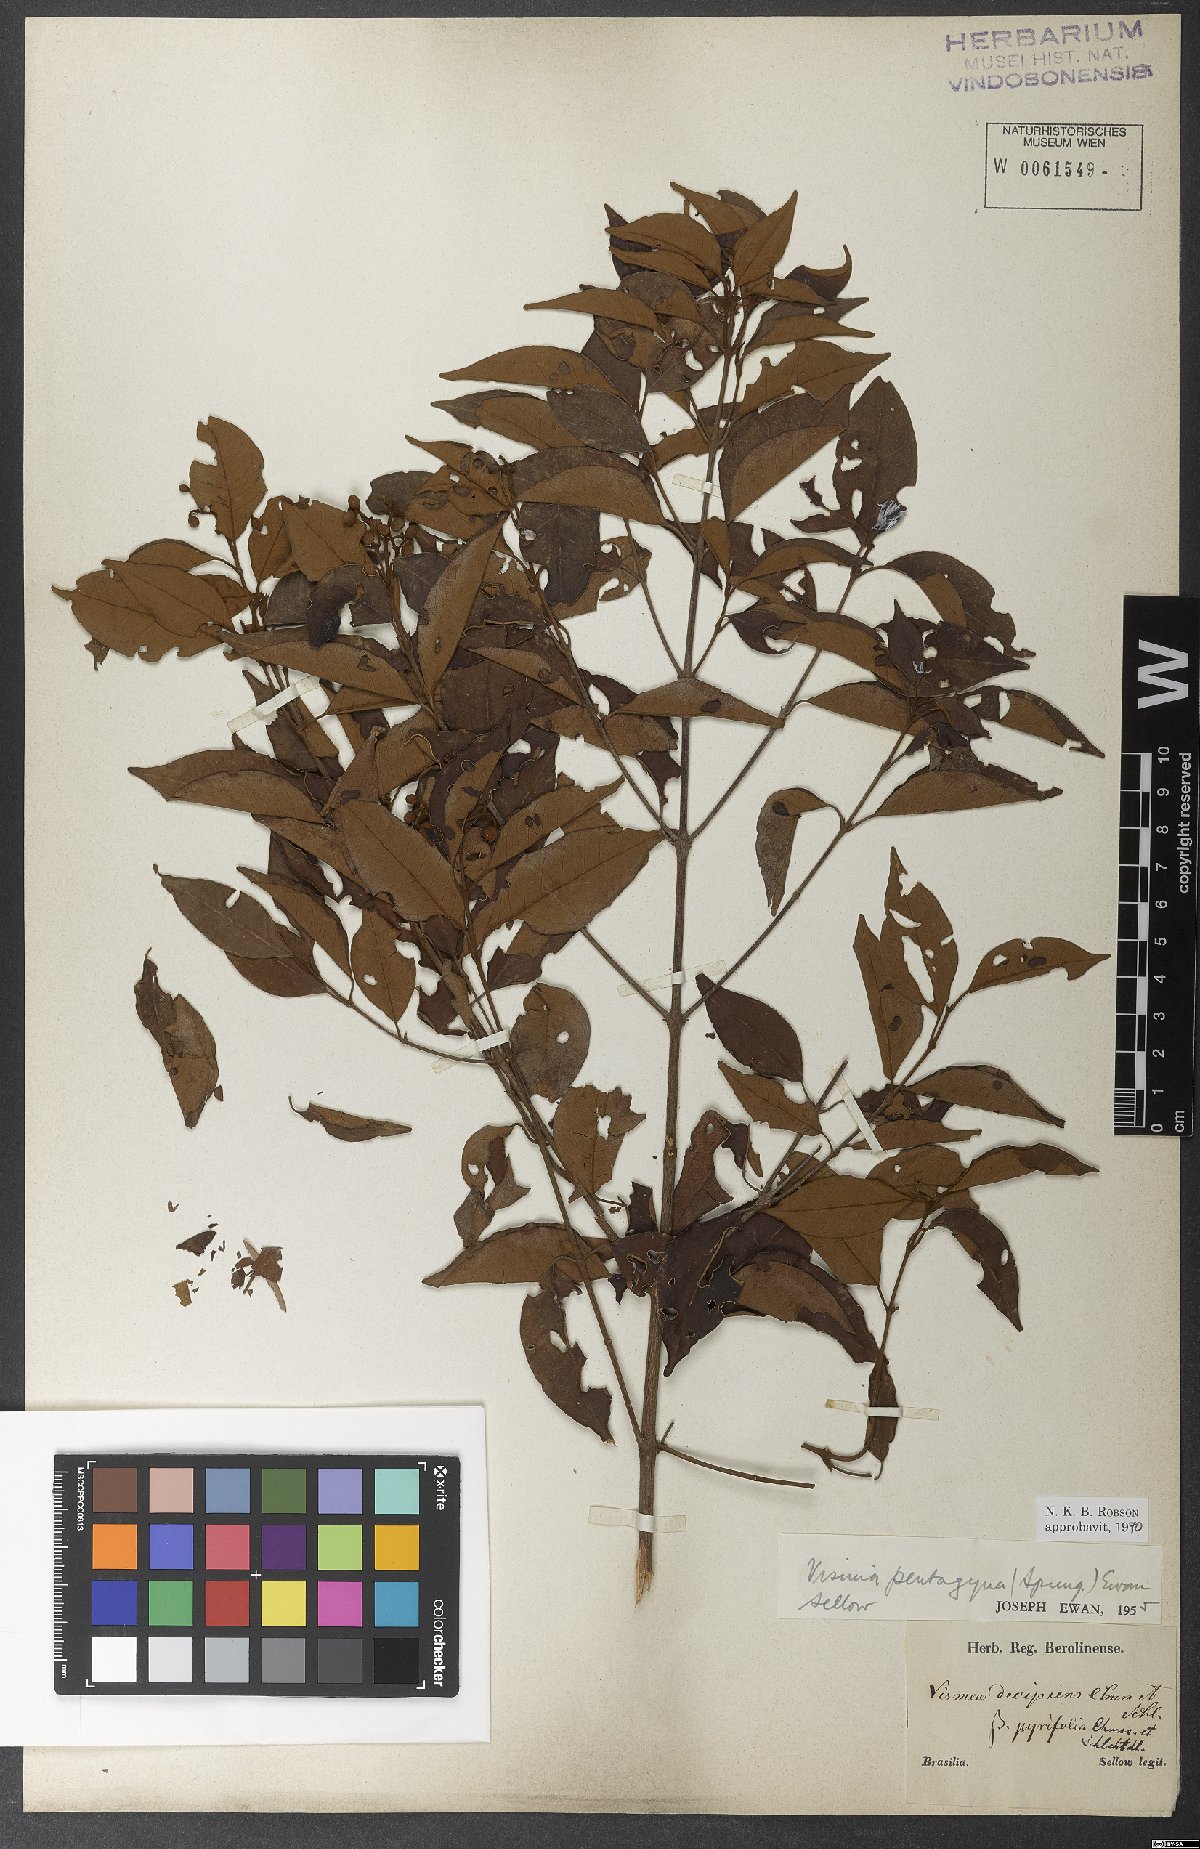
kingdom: Plantae
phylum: Tracheophyta
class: Magnoliopsida
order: Malpighiales
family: Hypericaceae
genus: Vismia
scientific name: Vismia pentagyna
